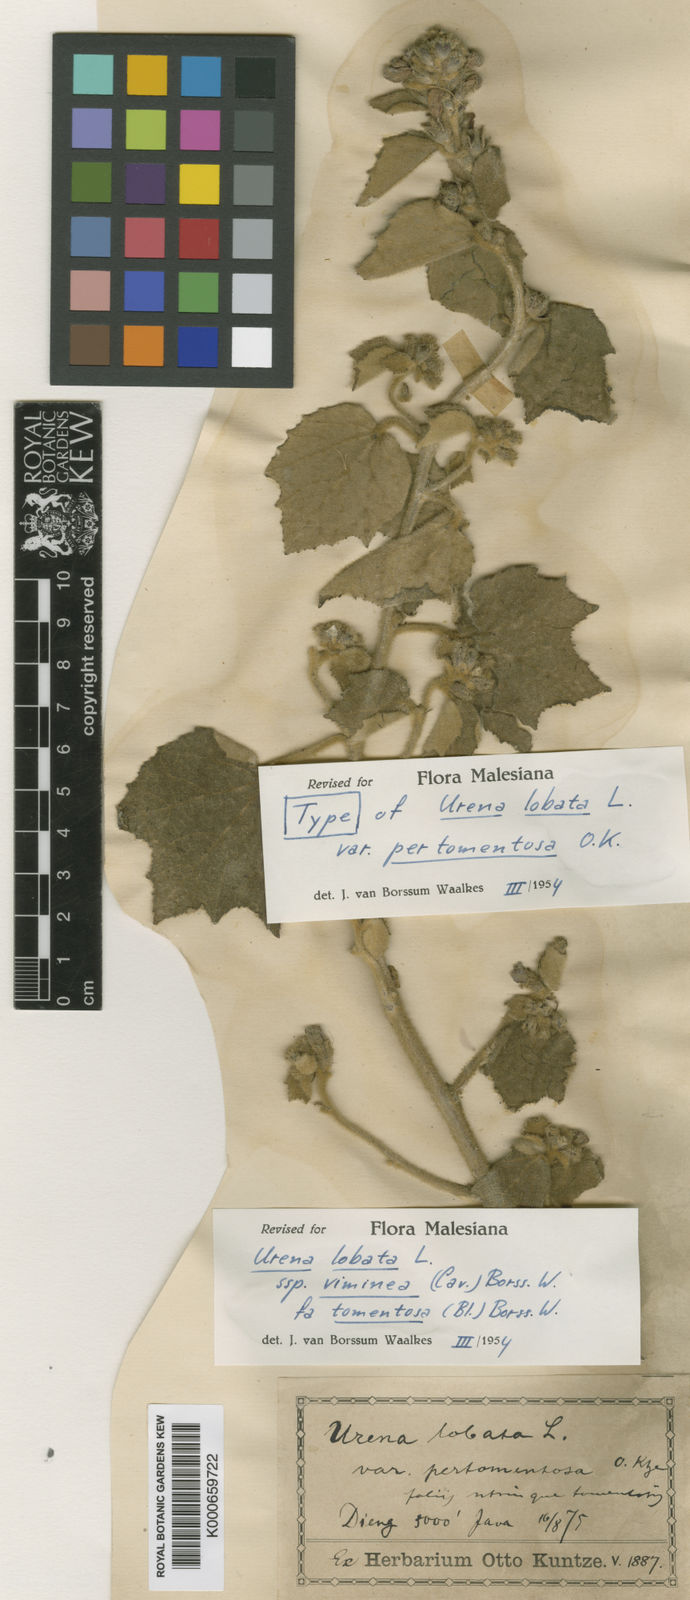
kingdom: Plantae
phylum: Tracheophyta
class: Magnoliopsida
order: Malvales
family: Malvaceae
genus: Urena
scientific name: Urena lobata
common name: Caesarweed
